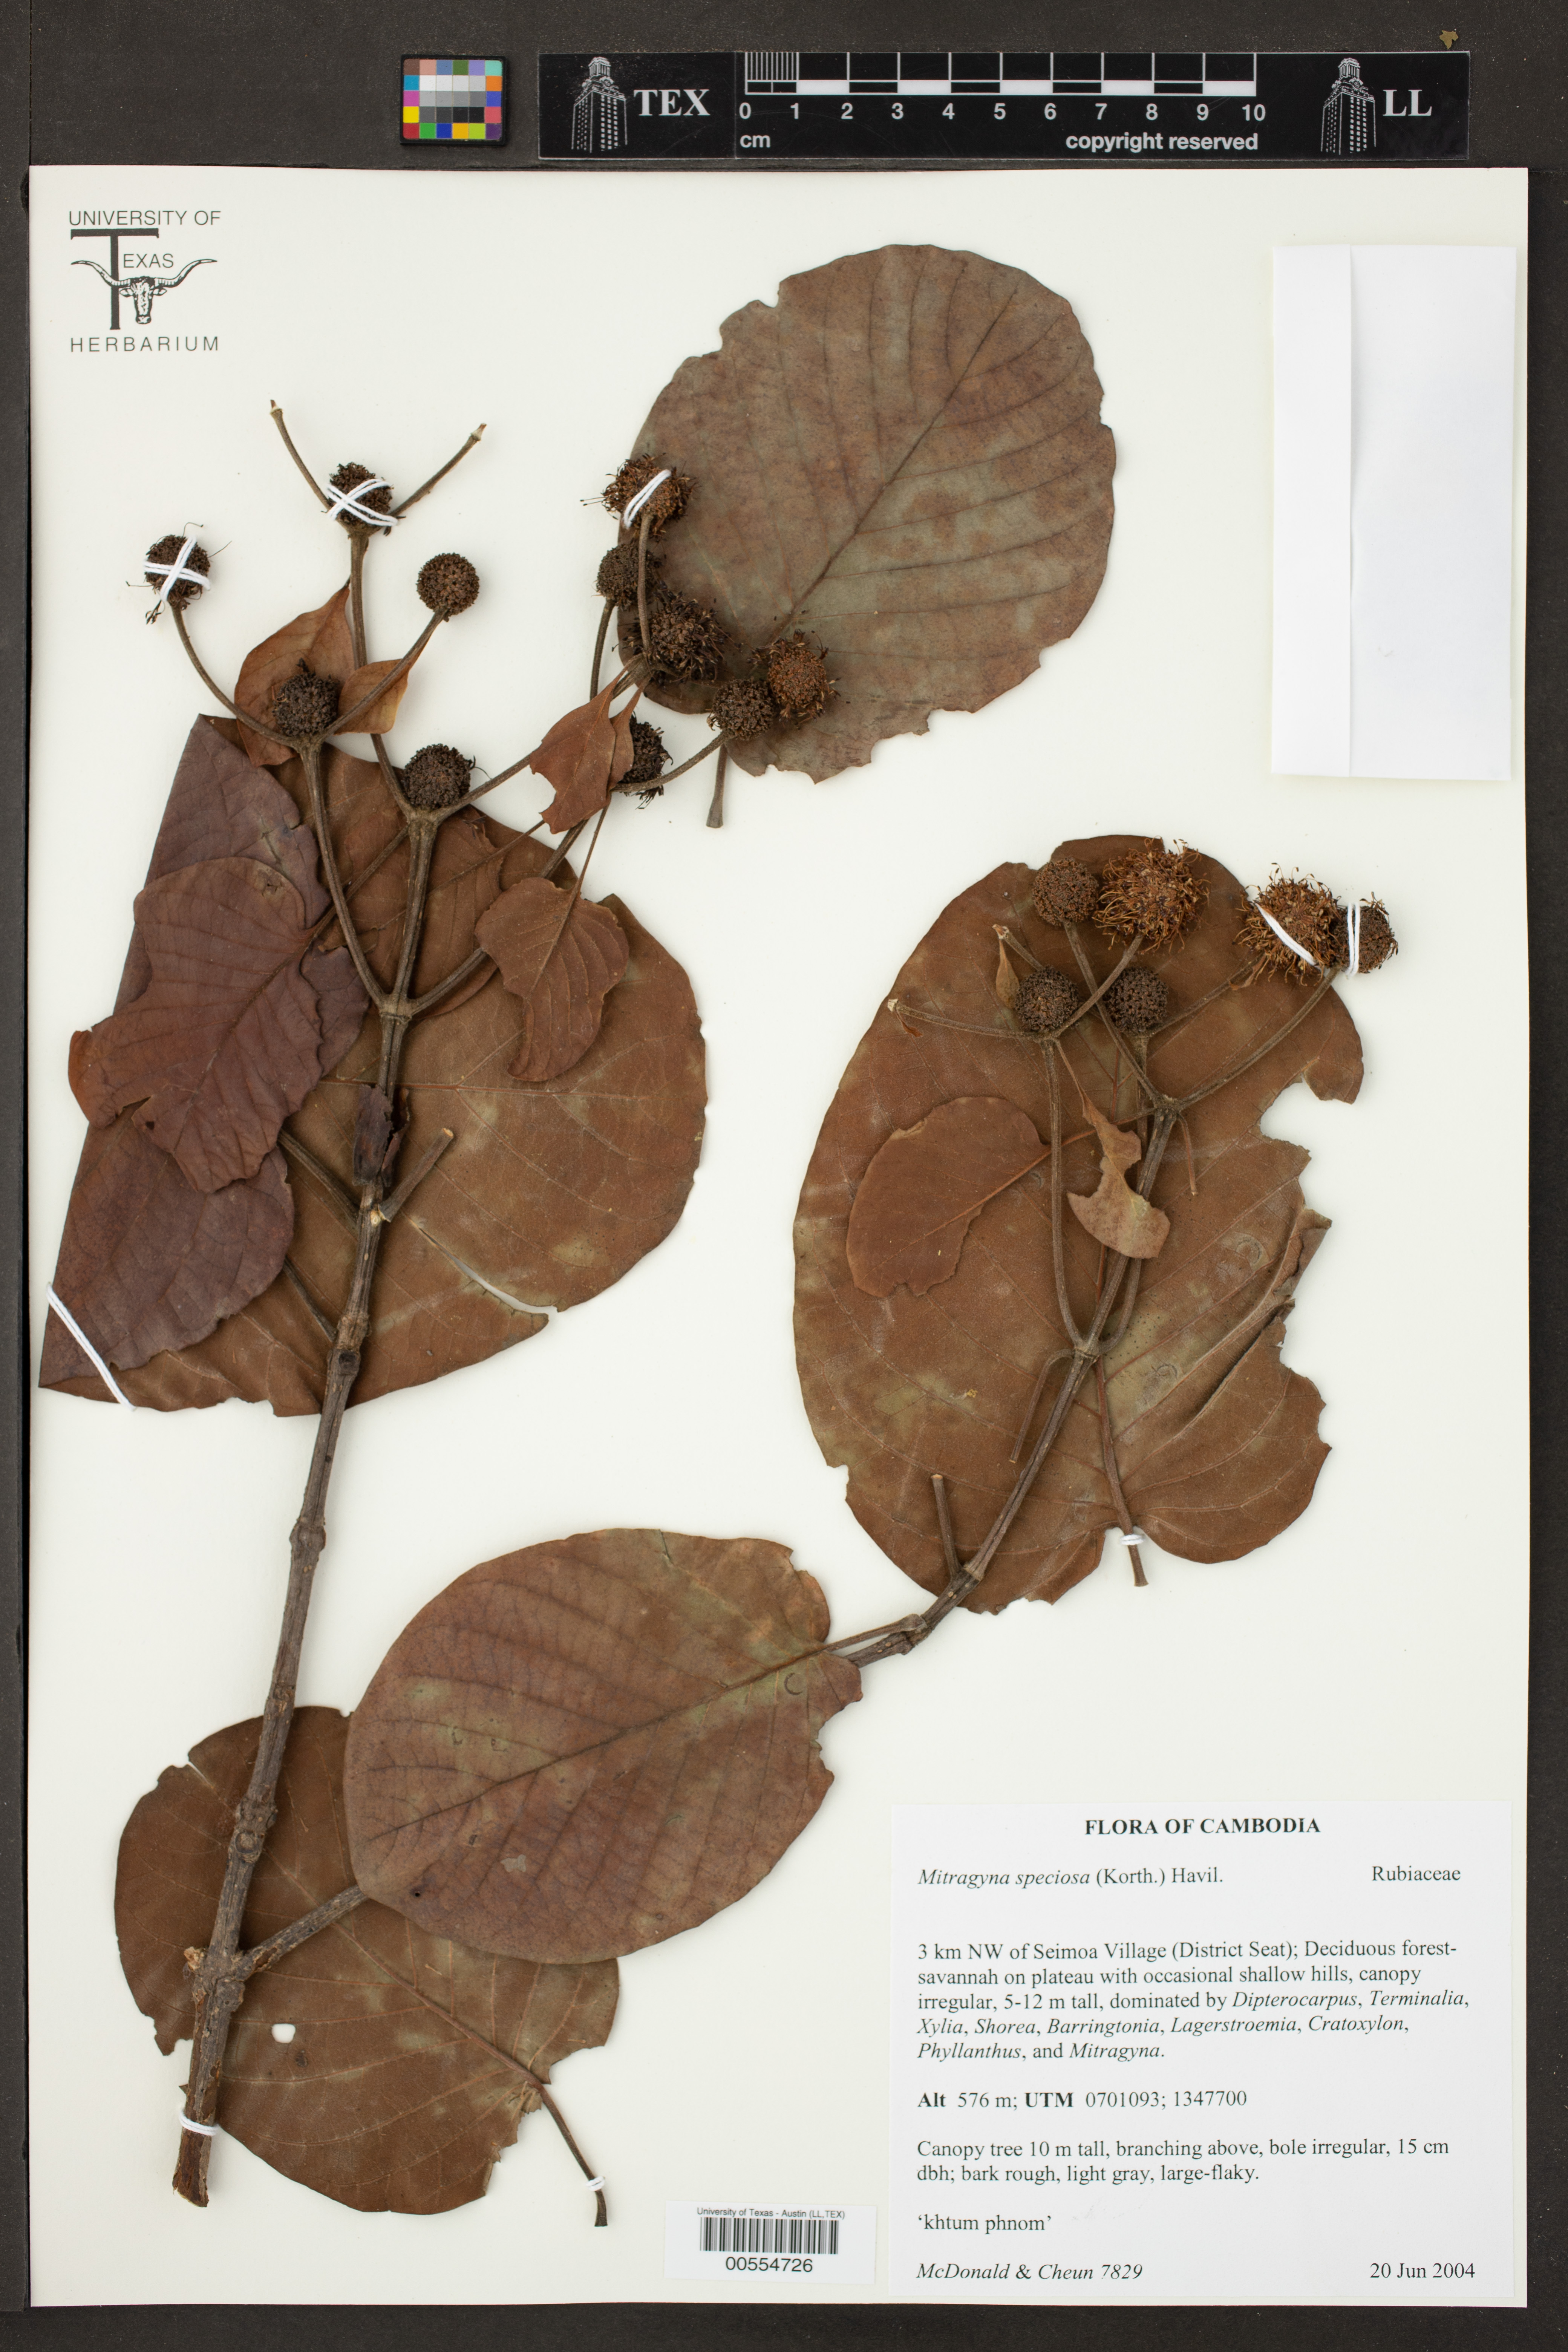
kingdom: Plantae
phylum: Tracheophyta
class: Magnoliopsida
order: Gentianales
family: Rubiaceae
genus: Mitragyna
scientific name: Mitragyna speciosa
